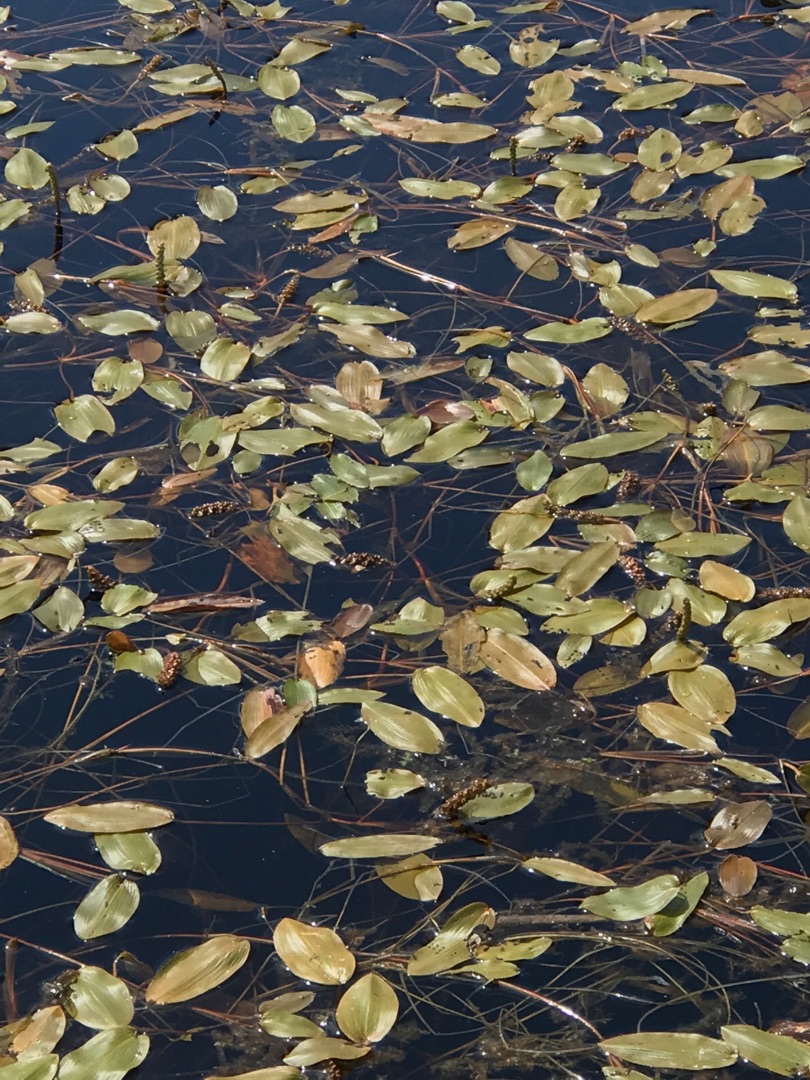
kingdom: Plantae
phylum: Tracheophyta
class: Liliopsida
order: Alismatales
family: Potamogetonaceae
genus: Potamogeton
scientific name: Potamogeton natans
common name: Svømmende vandaks
